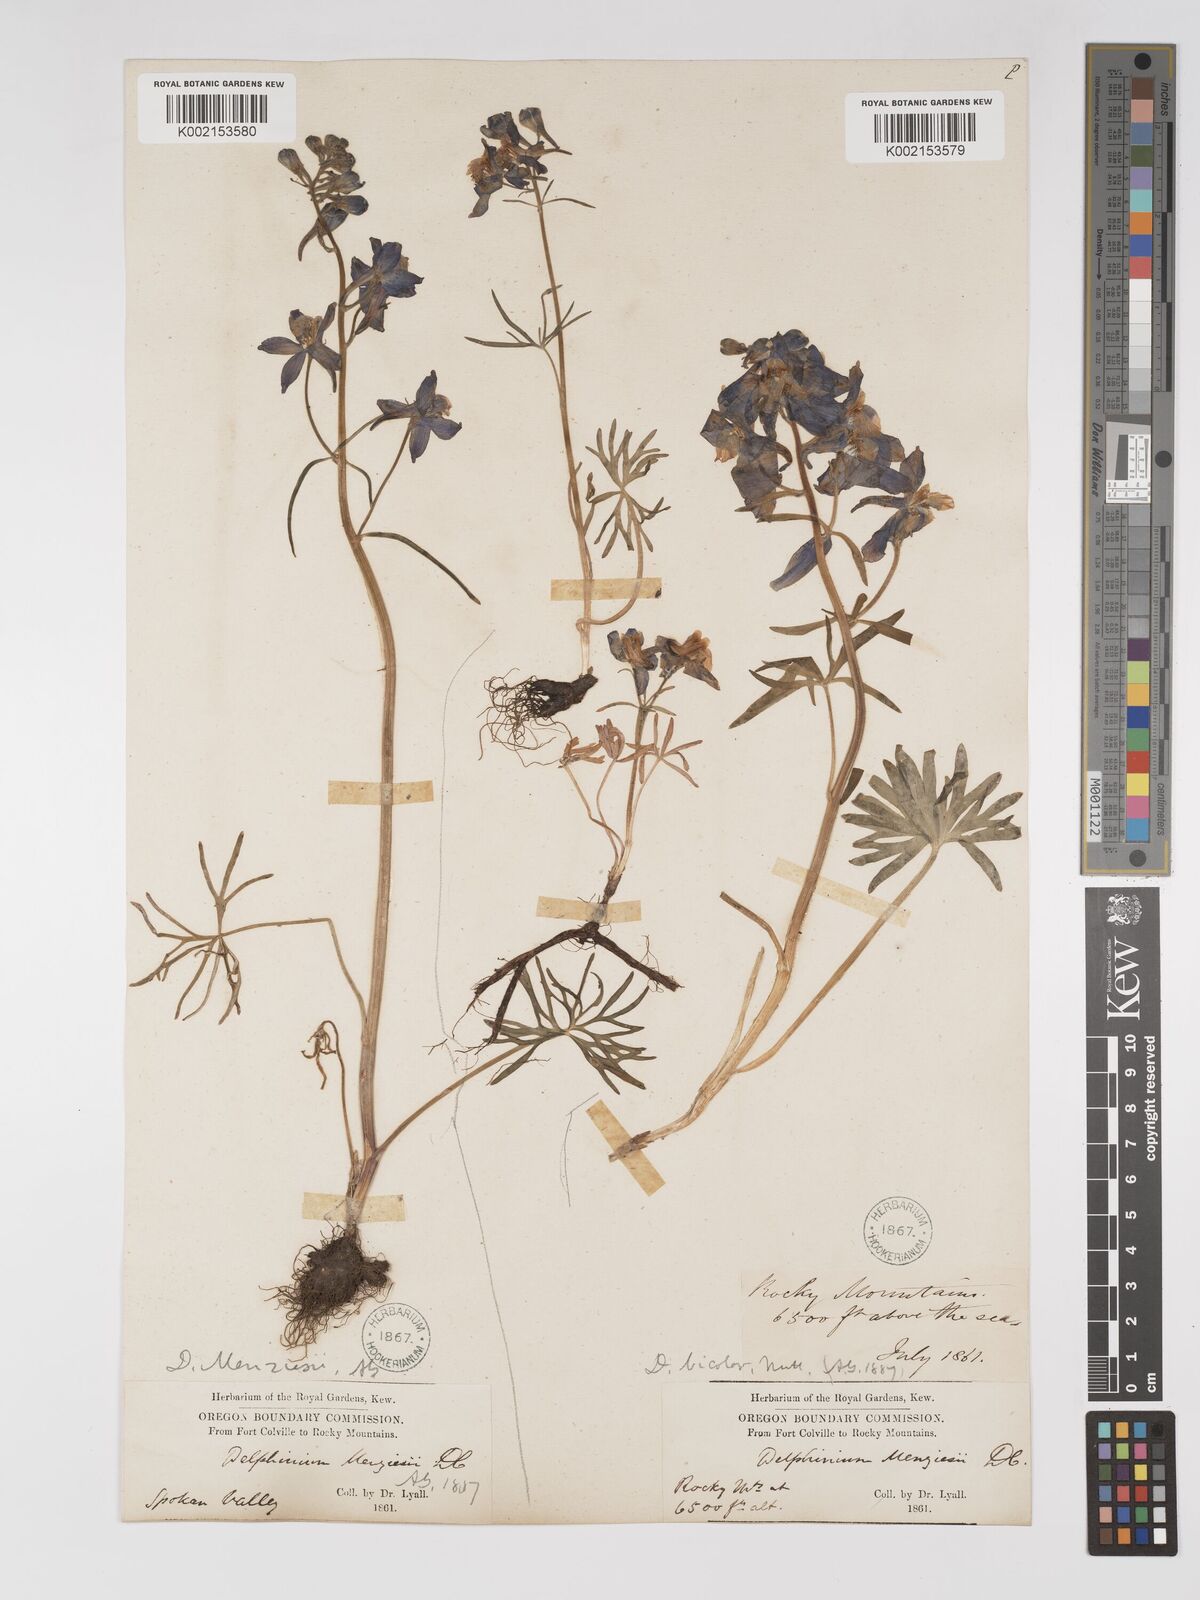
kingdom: Plantae
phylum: Tracheophyta
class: Magnoliopsida
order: Ranunculales
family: Ranunculaceae
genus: Delphinium
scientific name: Delphinium bicolor
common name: Low larkspur
